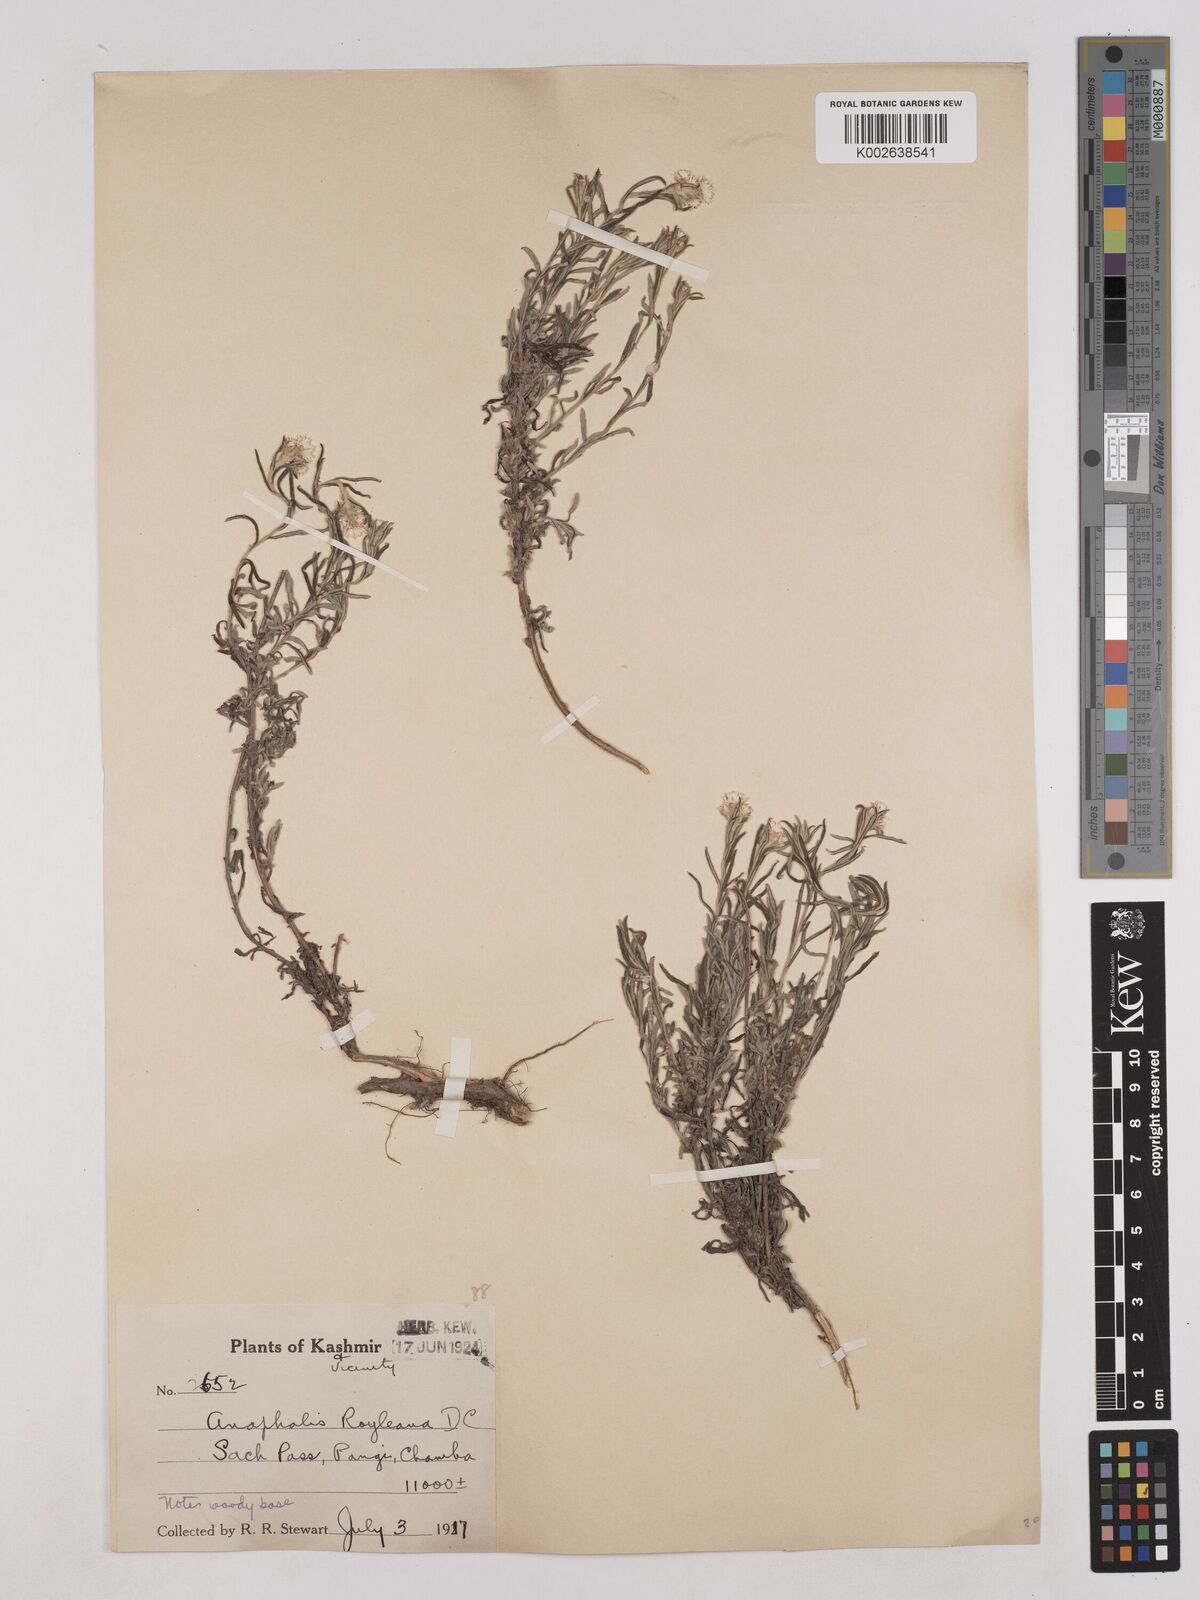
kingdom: Plantae
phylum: Tracheophyta
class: Magnoliopsida
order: Asterales
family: Asteraceae
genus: Anaphalis
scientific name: Anaphalis royleana
